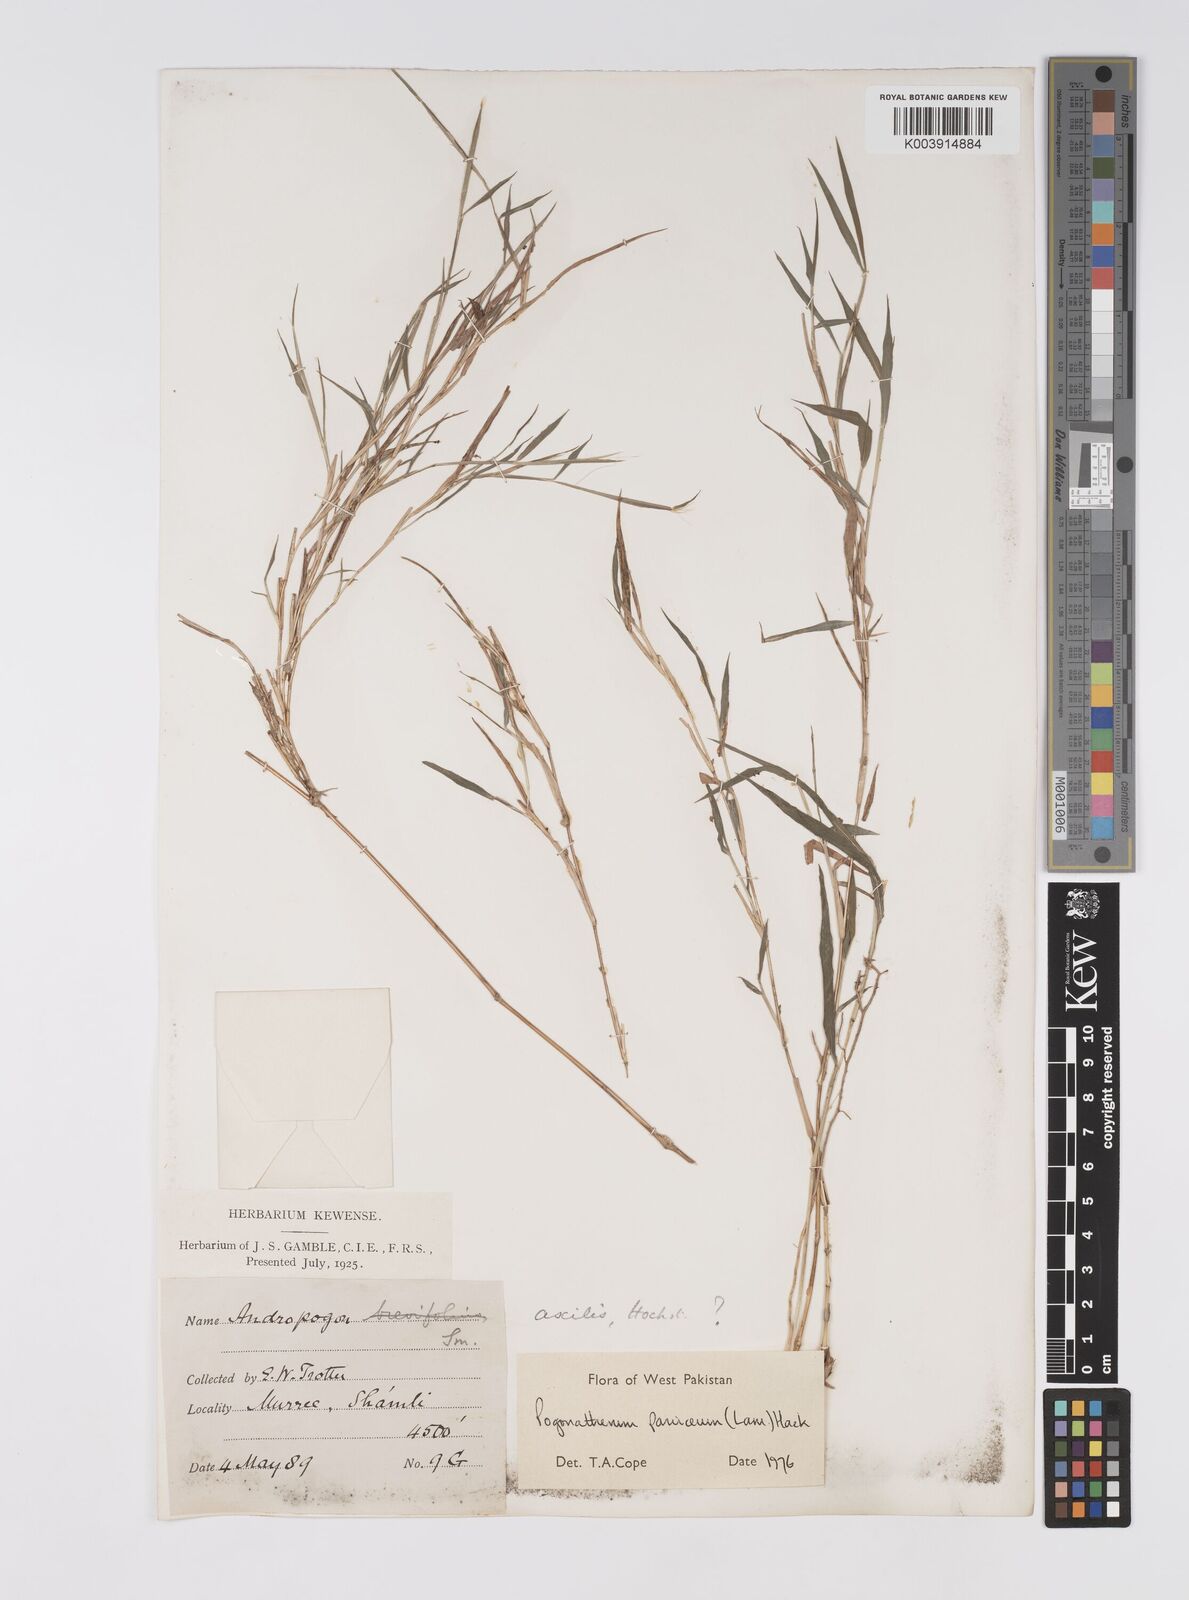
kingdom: Plantae
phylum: Tracheophyta
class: Liliopsida
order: Poales
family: Poaceae
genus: Pogonatherum
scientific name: Pogonatherum paniceum
